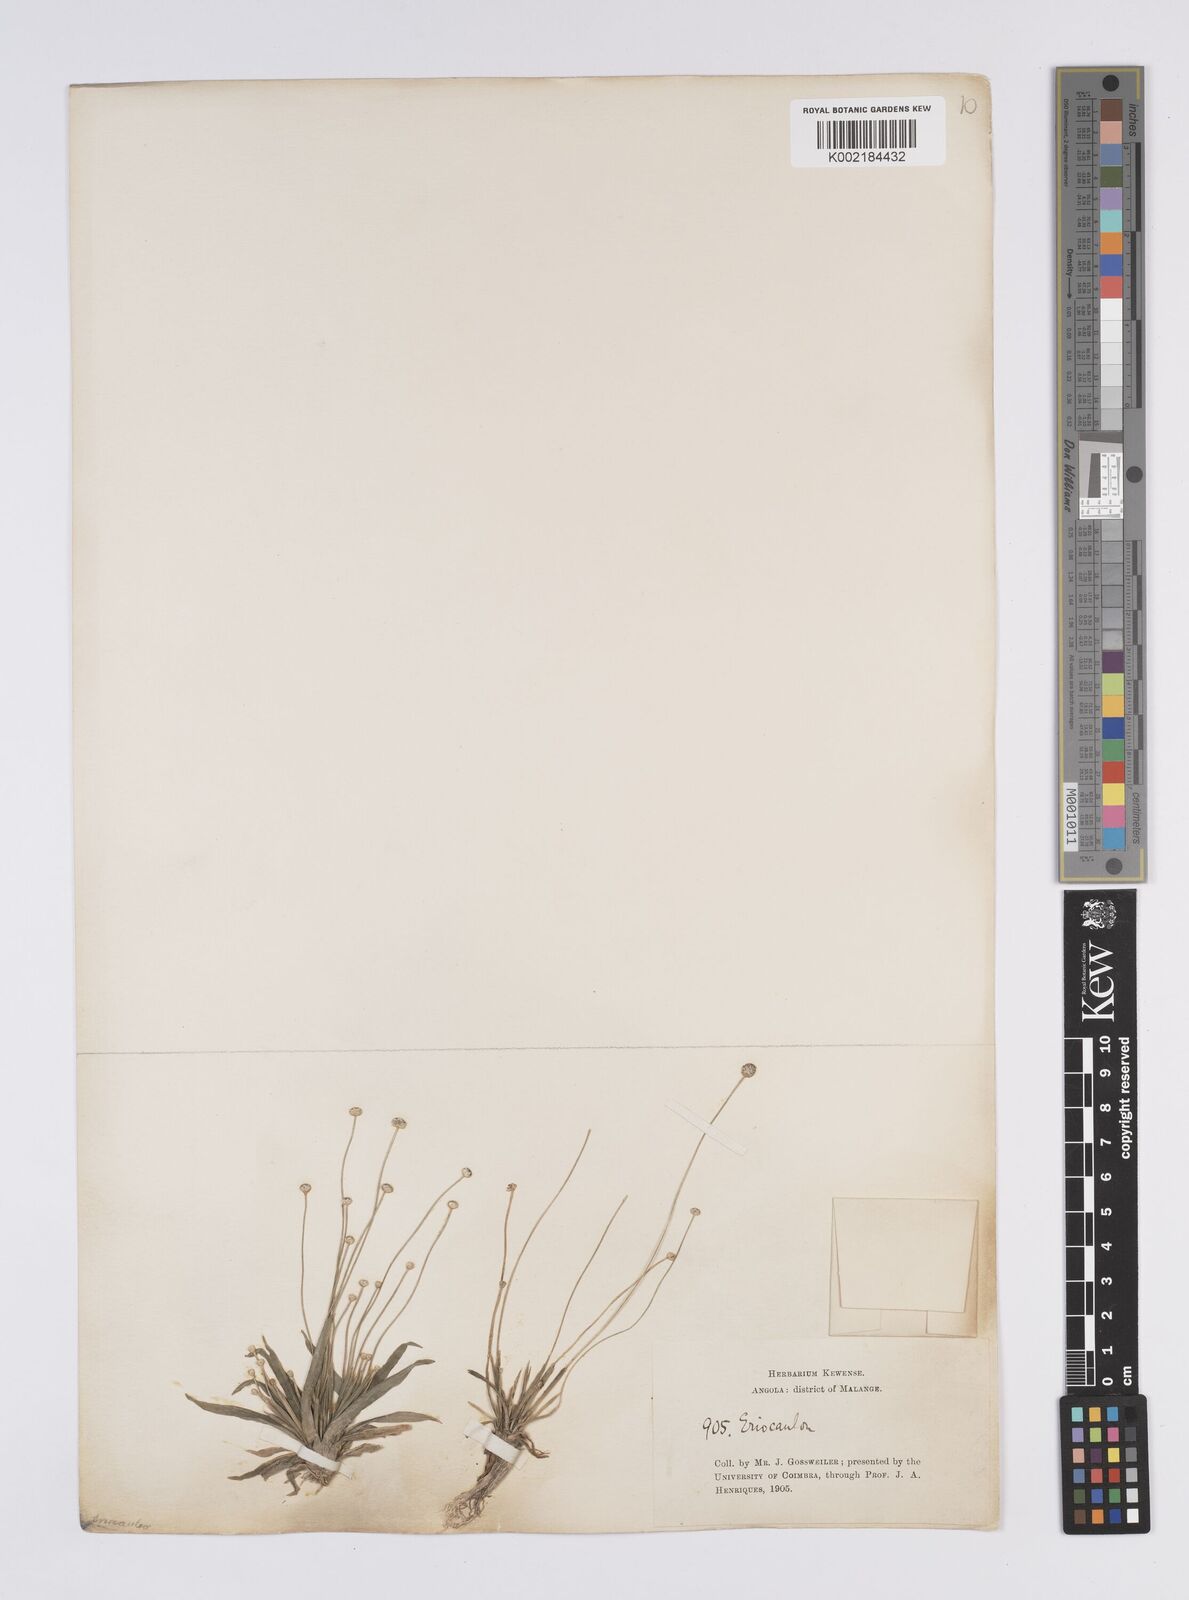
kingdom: Plantae
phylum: Tracheophyta
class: Liliopsida
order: Poales
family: Eriocaulaceae
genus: Eriocaulon
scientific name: Eriocaulon
